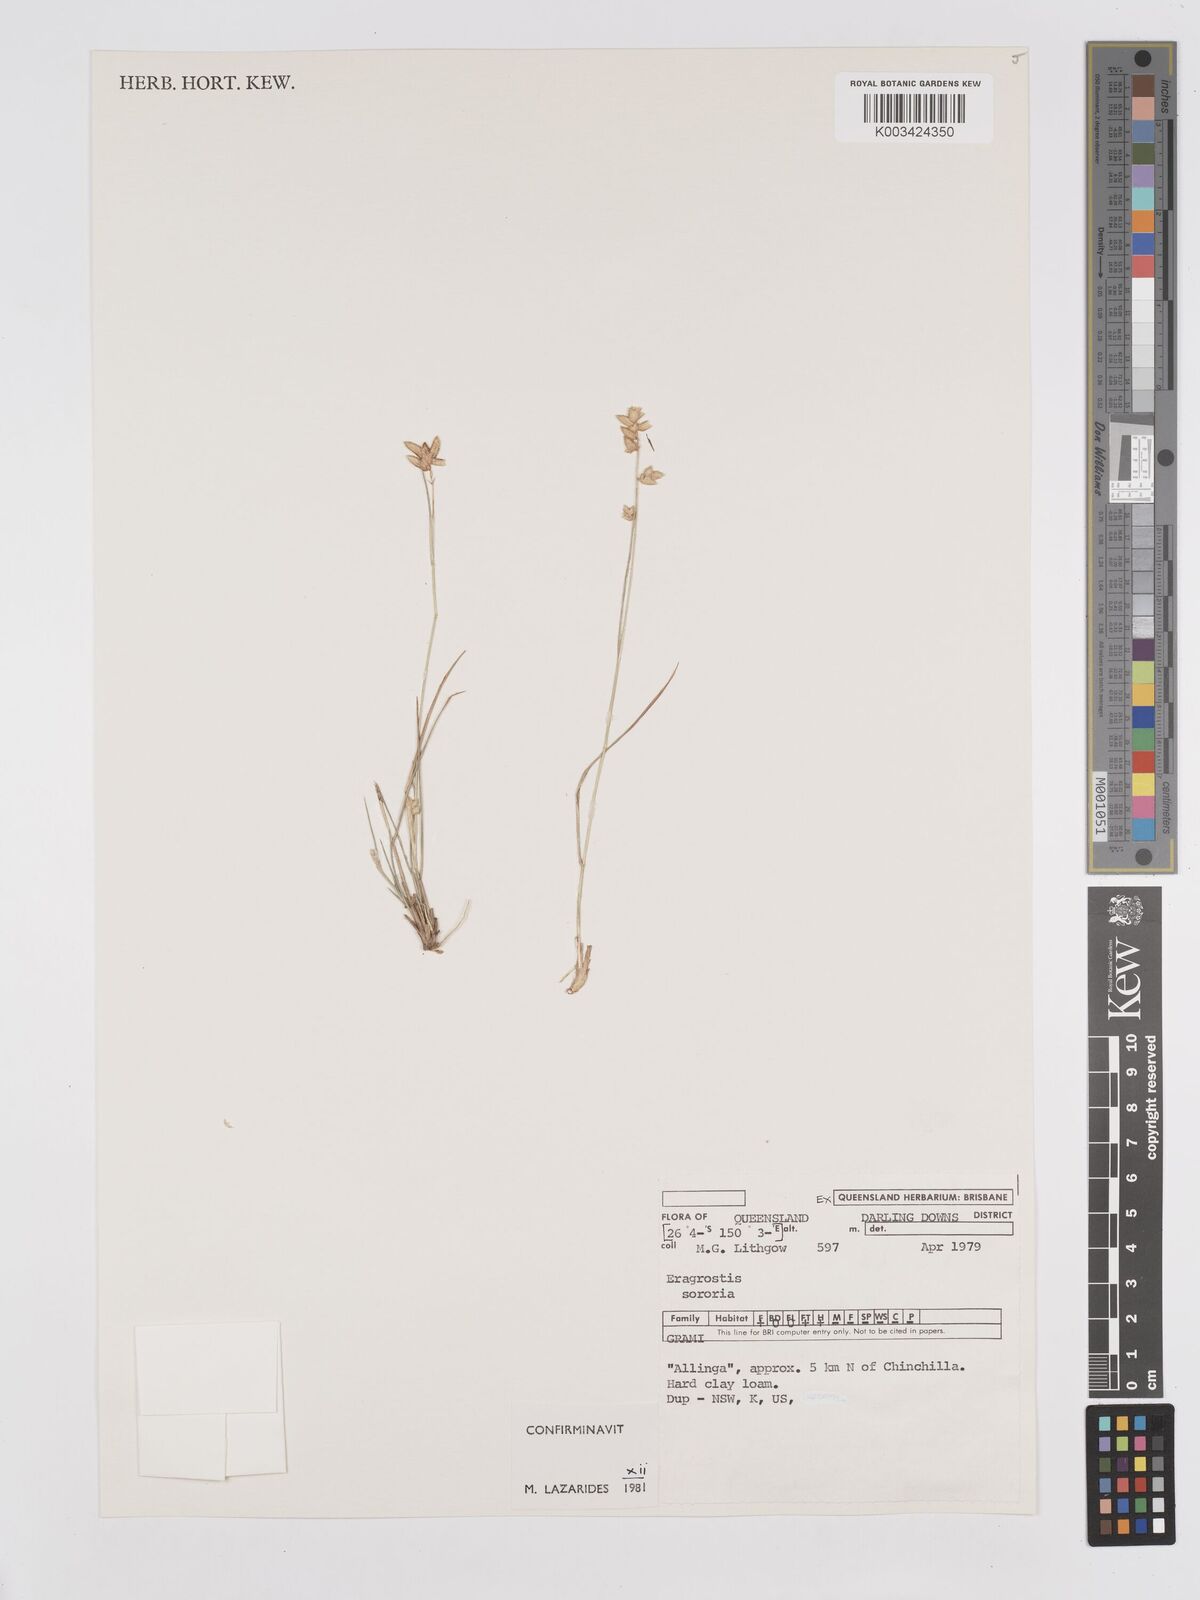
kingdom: Plantae
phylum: Tracheophyta
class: Liliopsida
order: Poales
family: Poaceae
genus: Eragrostis
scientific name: Eragrostis sororia
